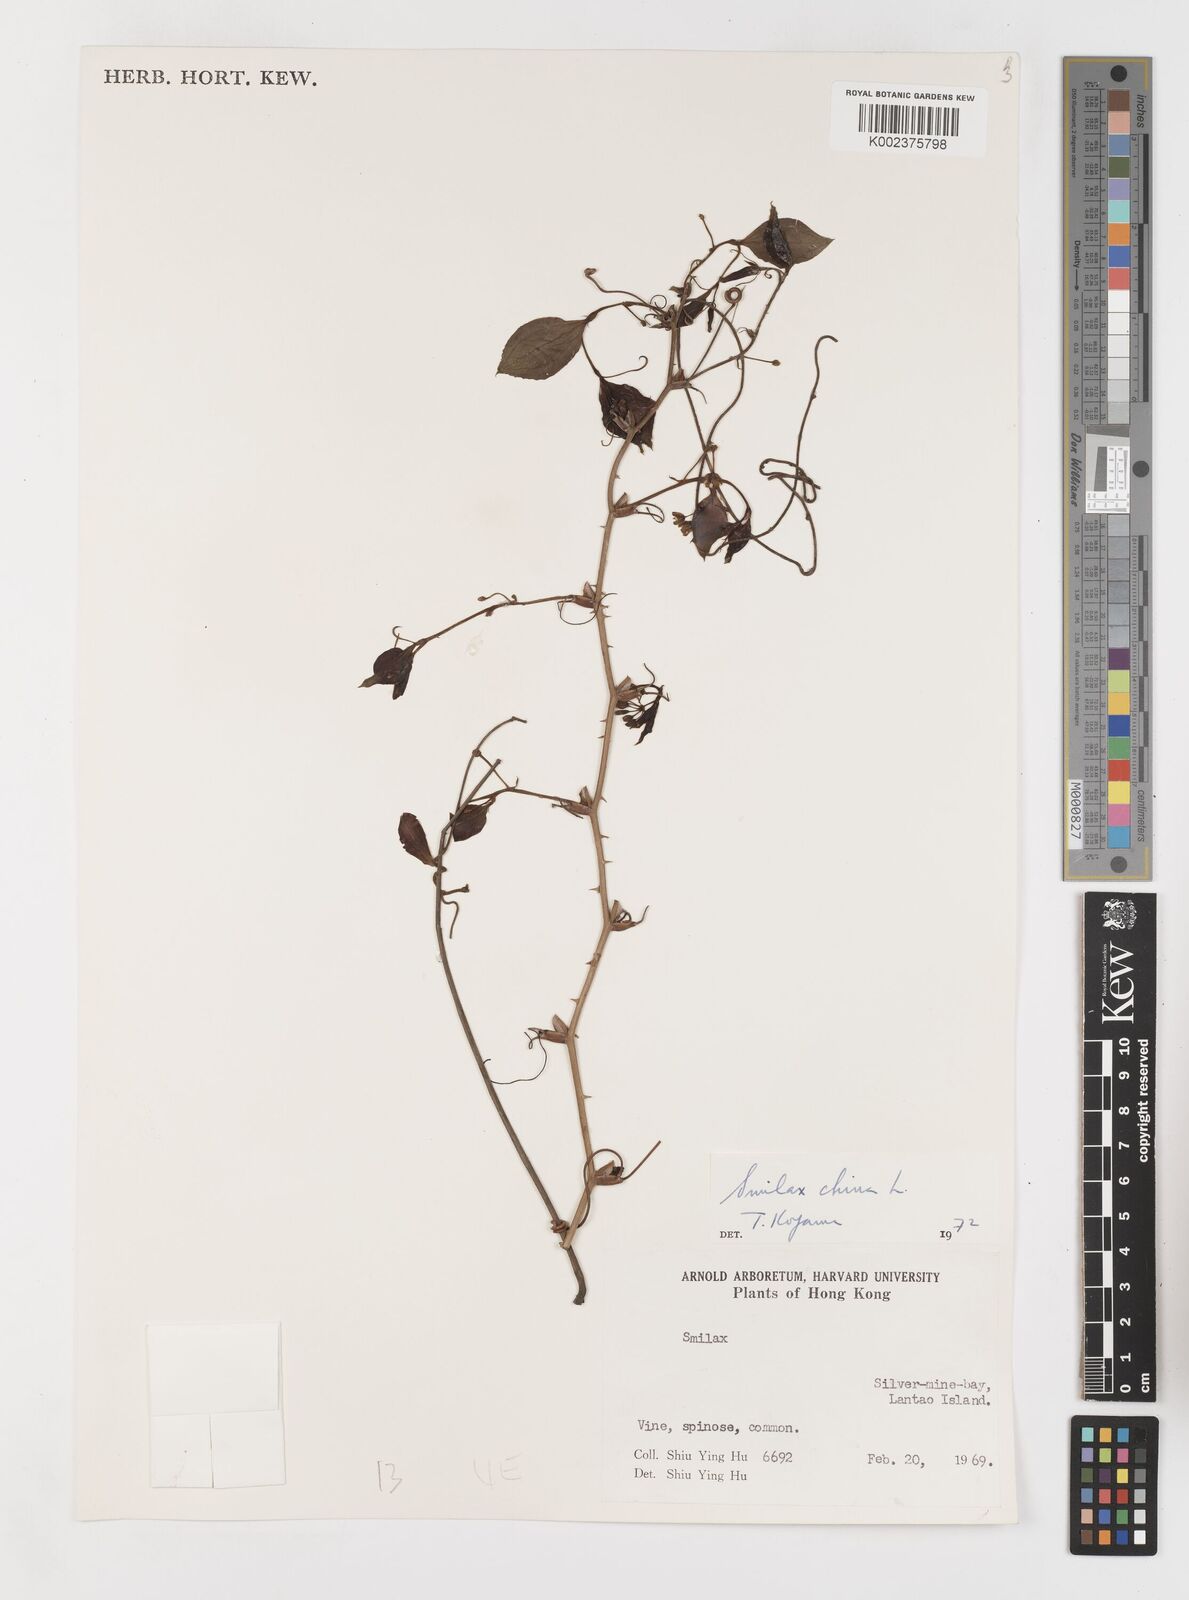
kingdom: Plantae
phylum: Tracheophyta
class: Liliopsida
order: Liliales
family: Smilacaceae
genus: Smilax
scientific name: Smilax china
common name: Chinaroot
